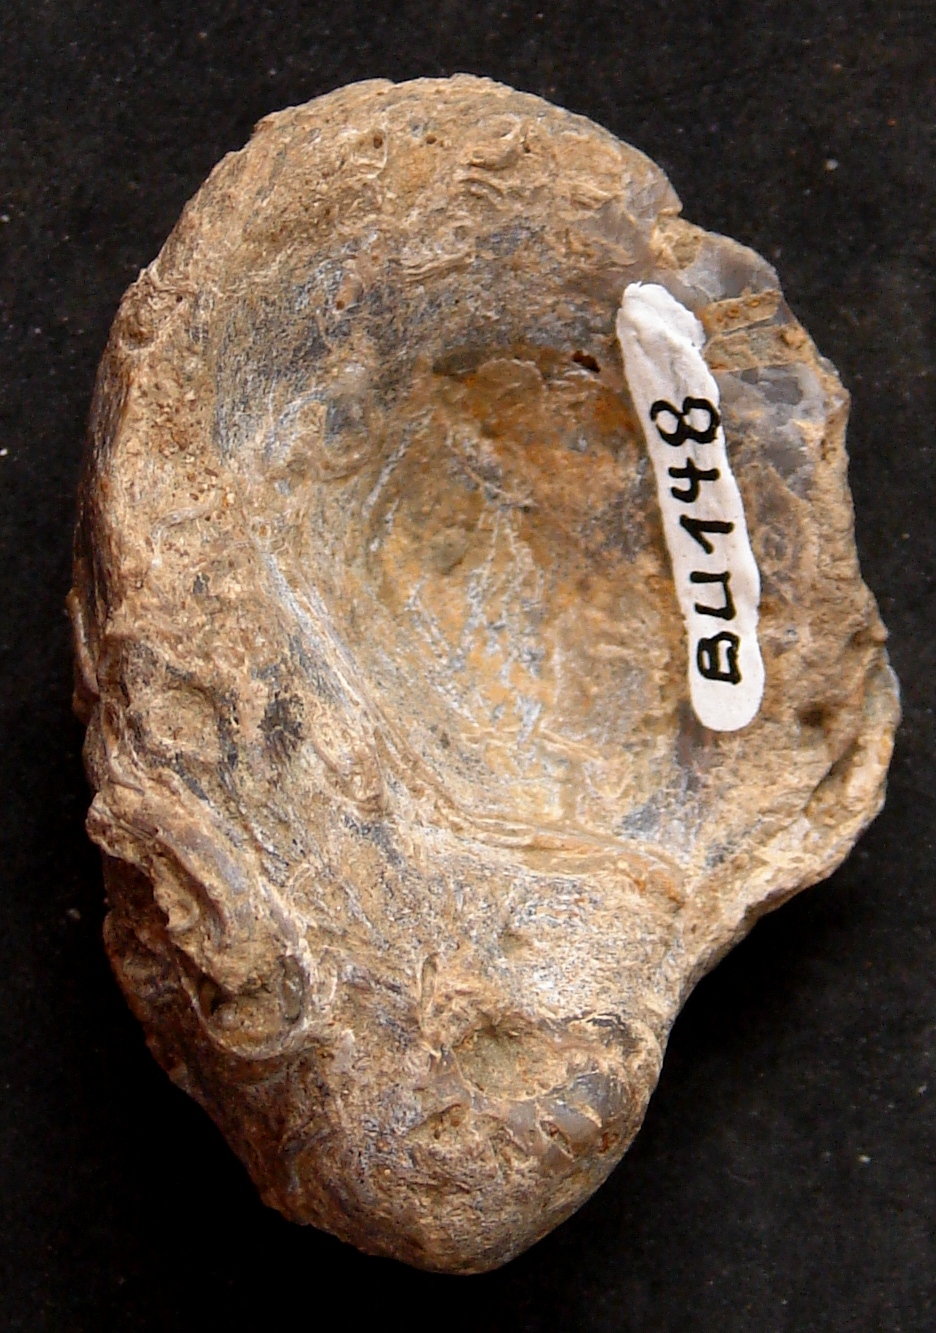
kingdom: Animalia
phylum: Mollusca
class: Bivalvia
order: Ostreida
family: Gryphaeidae
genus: Gryphaea
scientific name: Gryphaea
